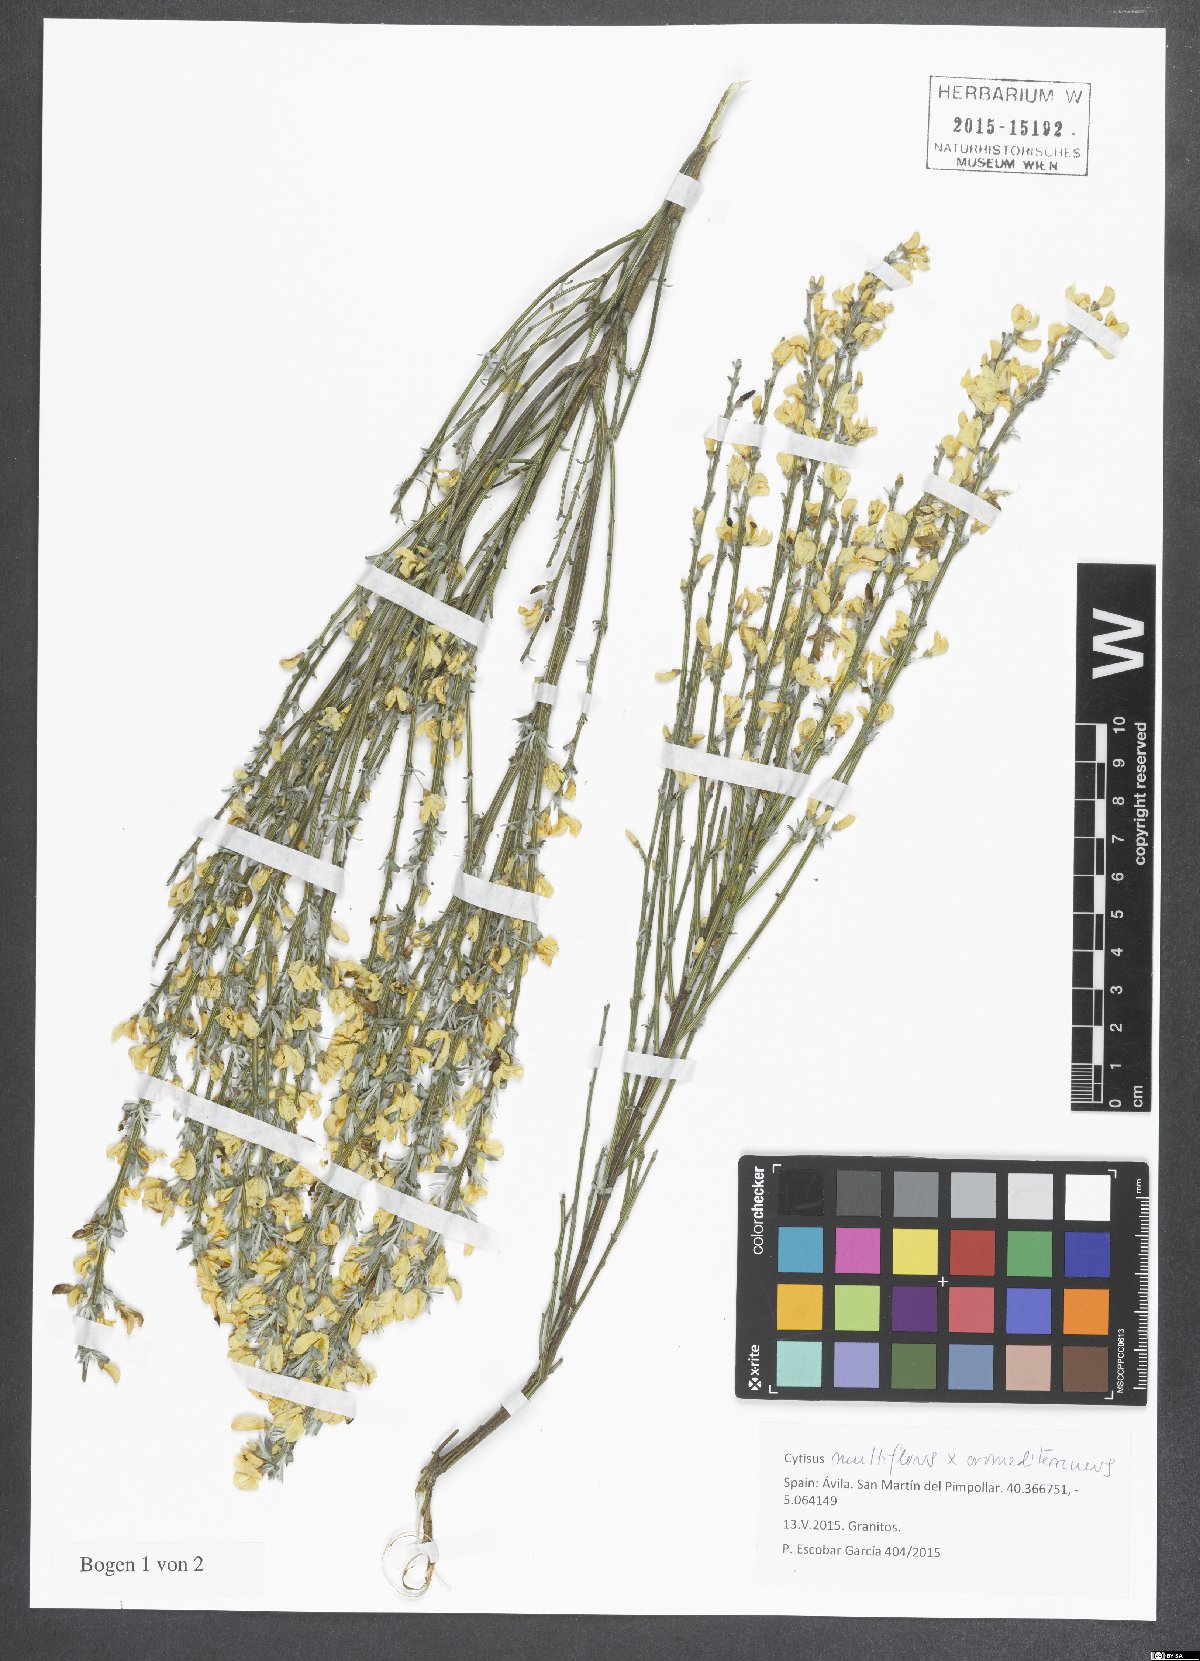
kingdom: Plantae
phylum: Tracheophyta
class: Magnoliopsida
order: Fabales
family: Fabaceae
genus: Cytisus
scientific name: Cytisus
